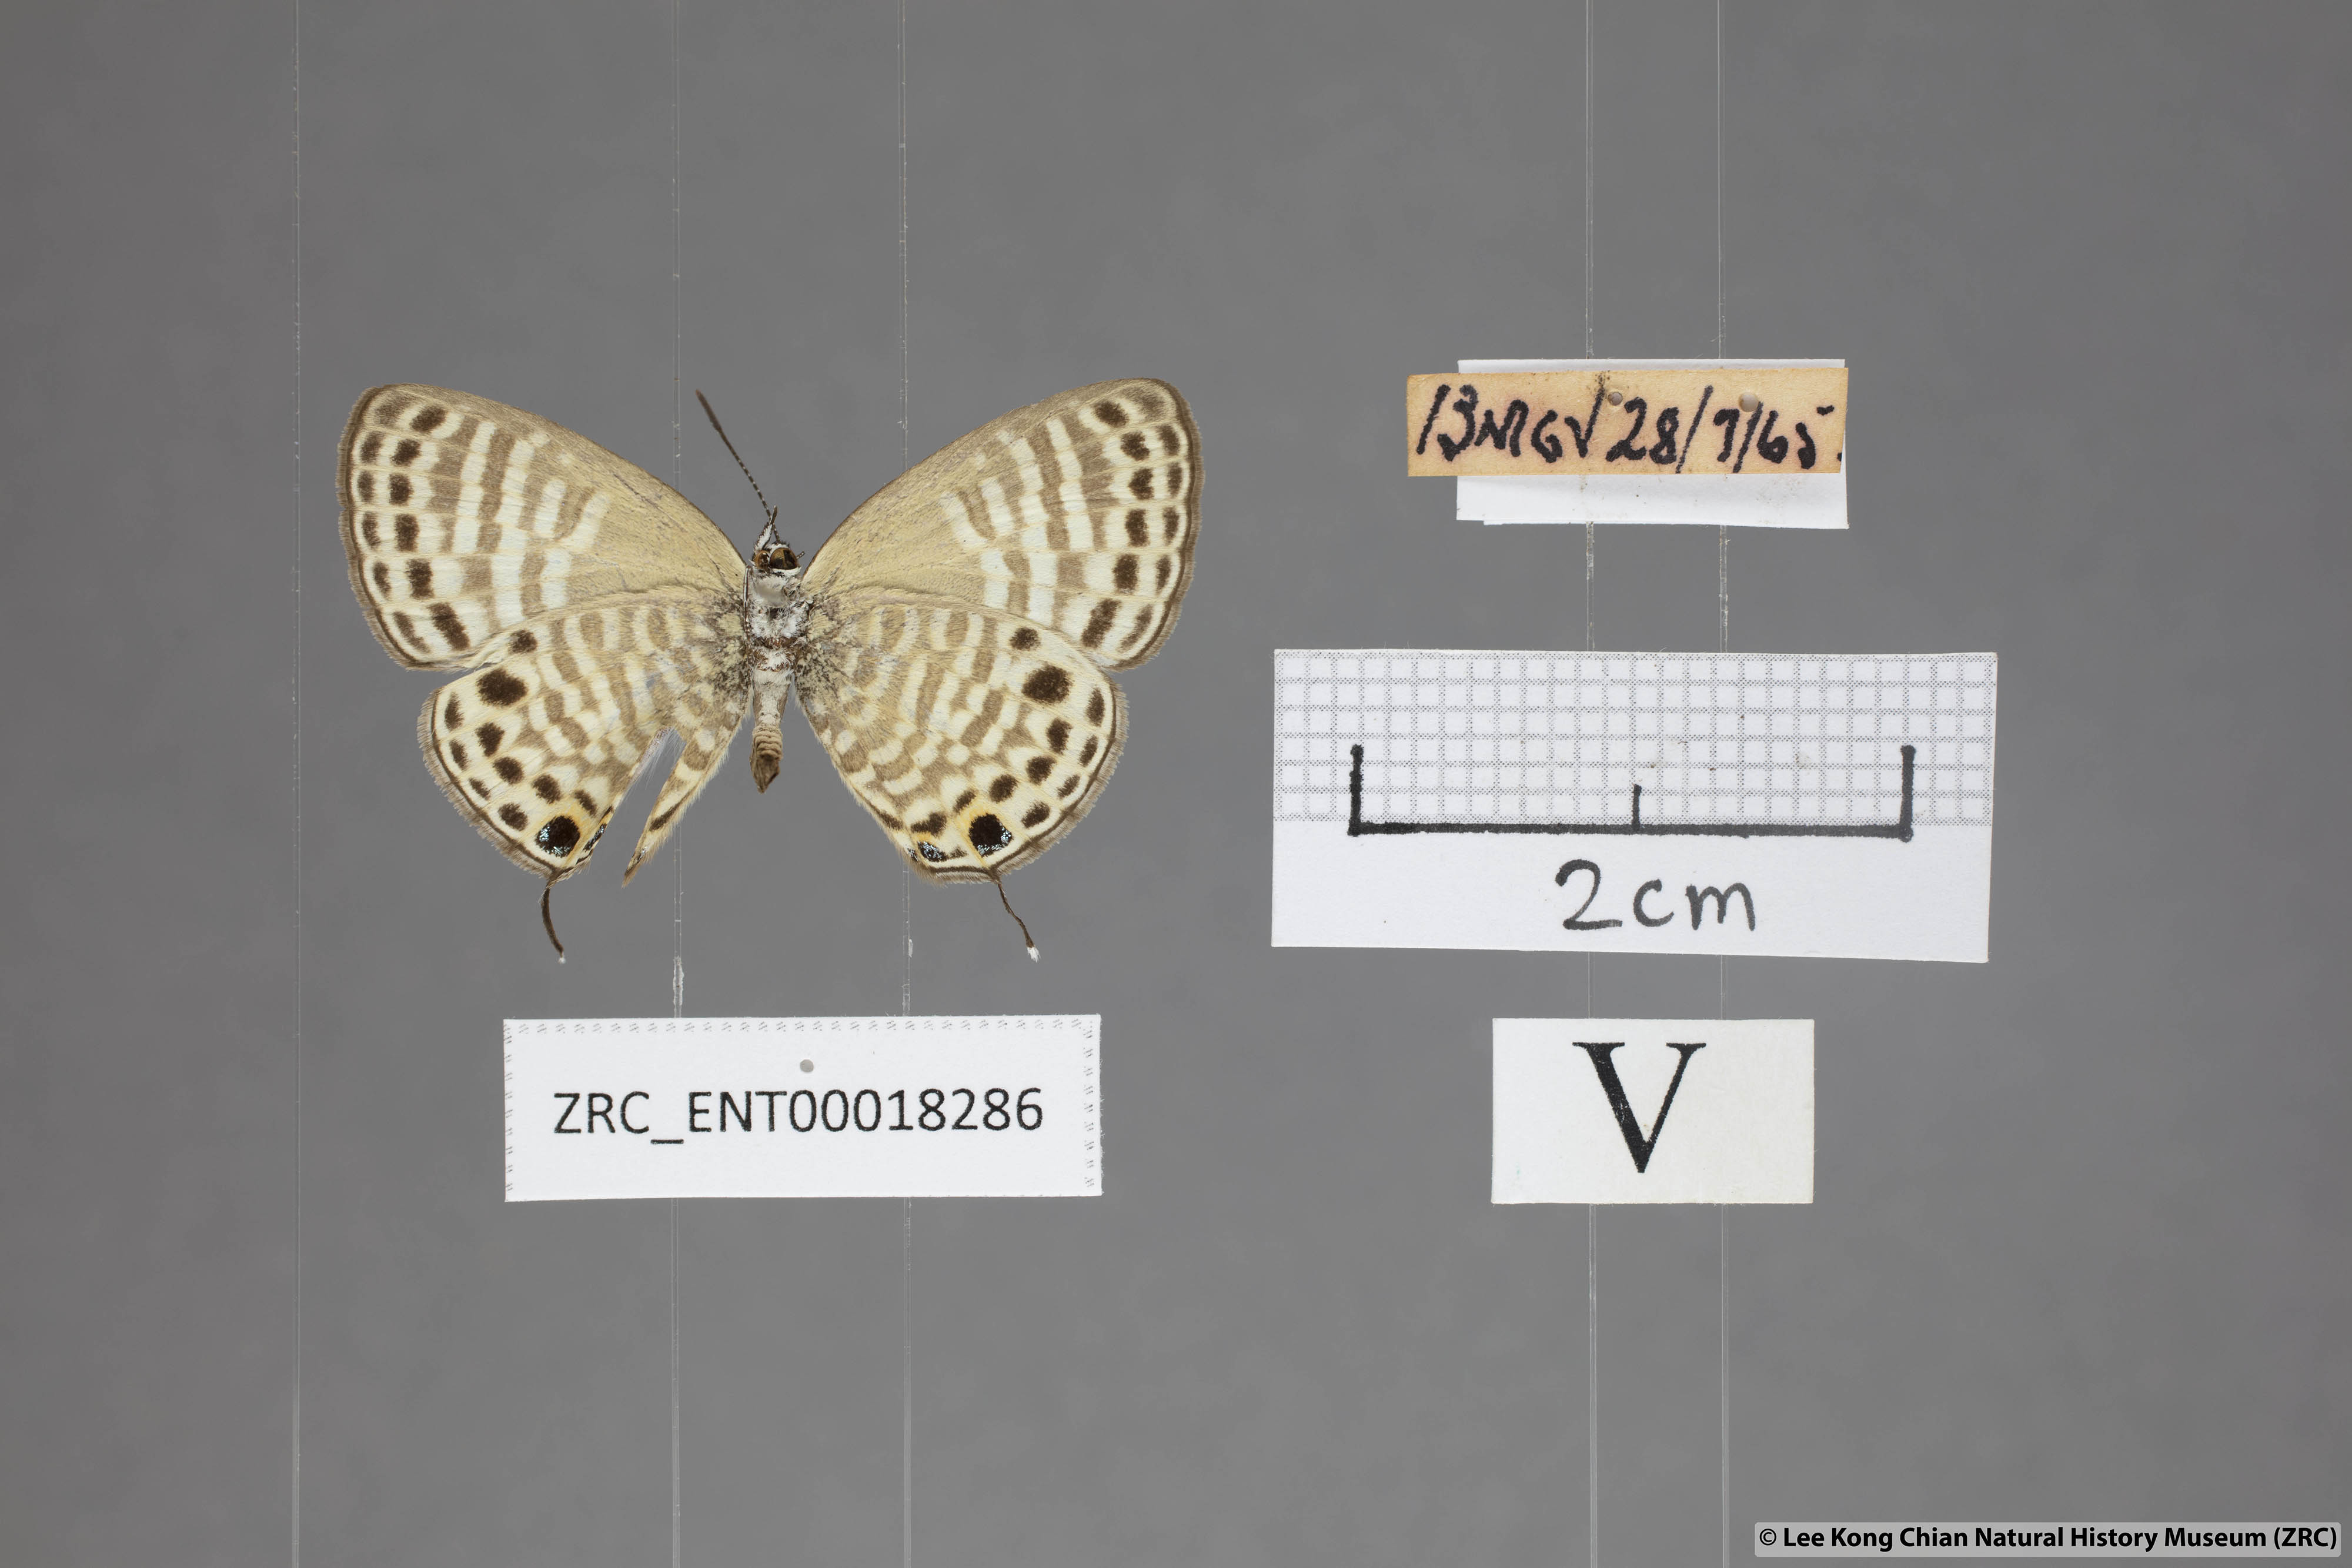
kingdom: Animalia
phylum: Arthropoda
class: Insecta
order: Lepidoptera
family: Lycaenidae
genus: Nacaduba
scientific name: Nacaduba angusta
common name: White four-line blue
